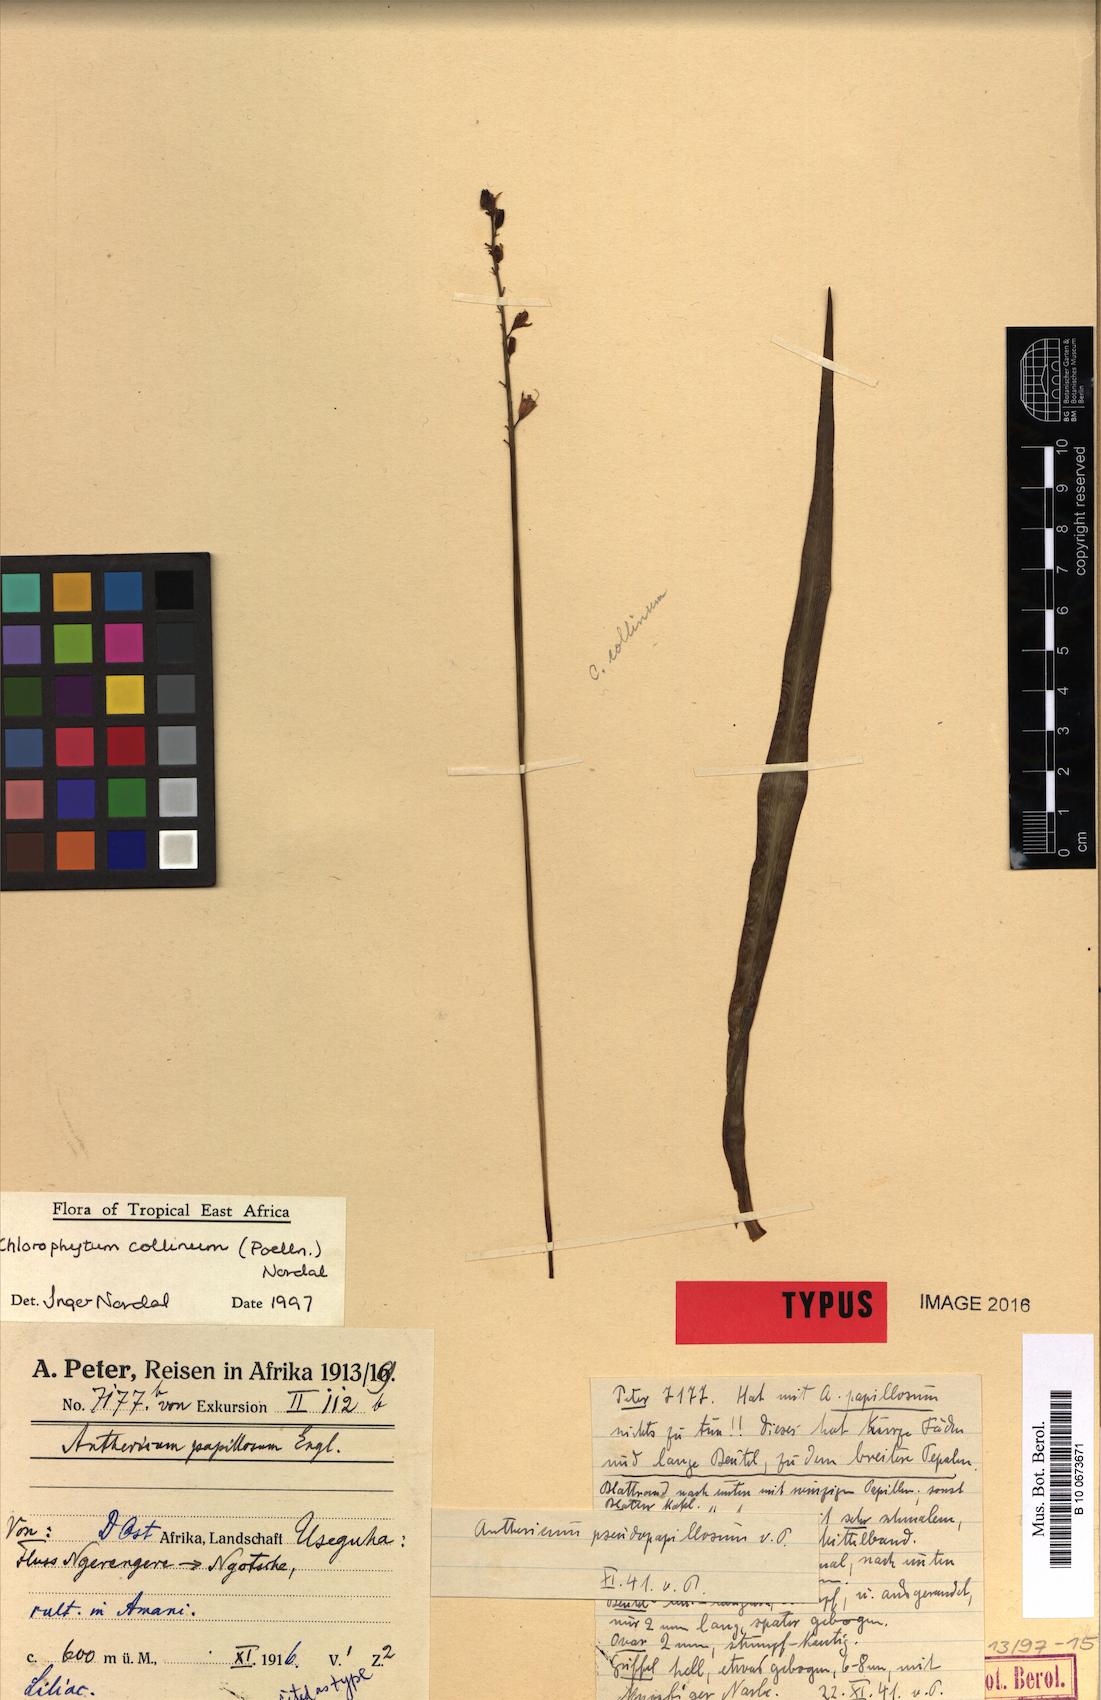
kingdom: Plantae
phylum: Tracheophyta
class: Liliopsida
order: Asparagales
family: Asparagaceae
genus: Chlorophytum
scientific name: Chlorophytum collinum
